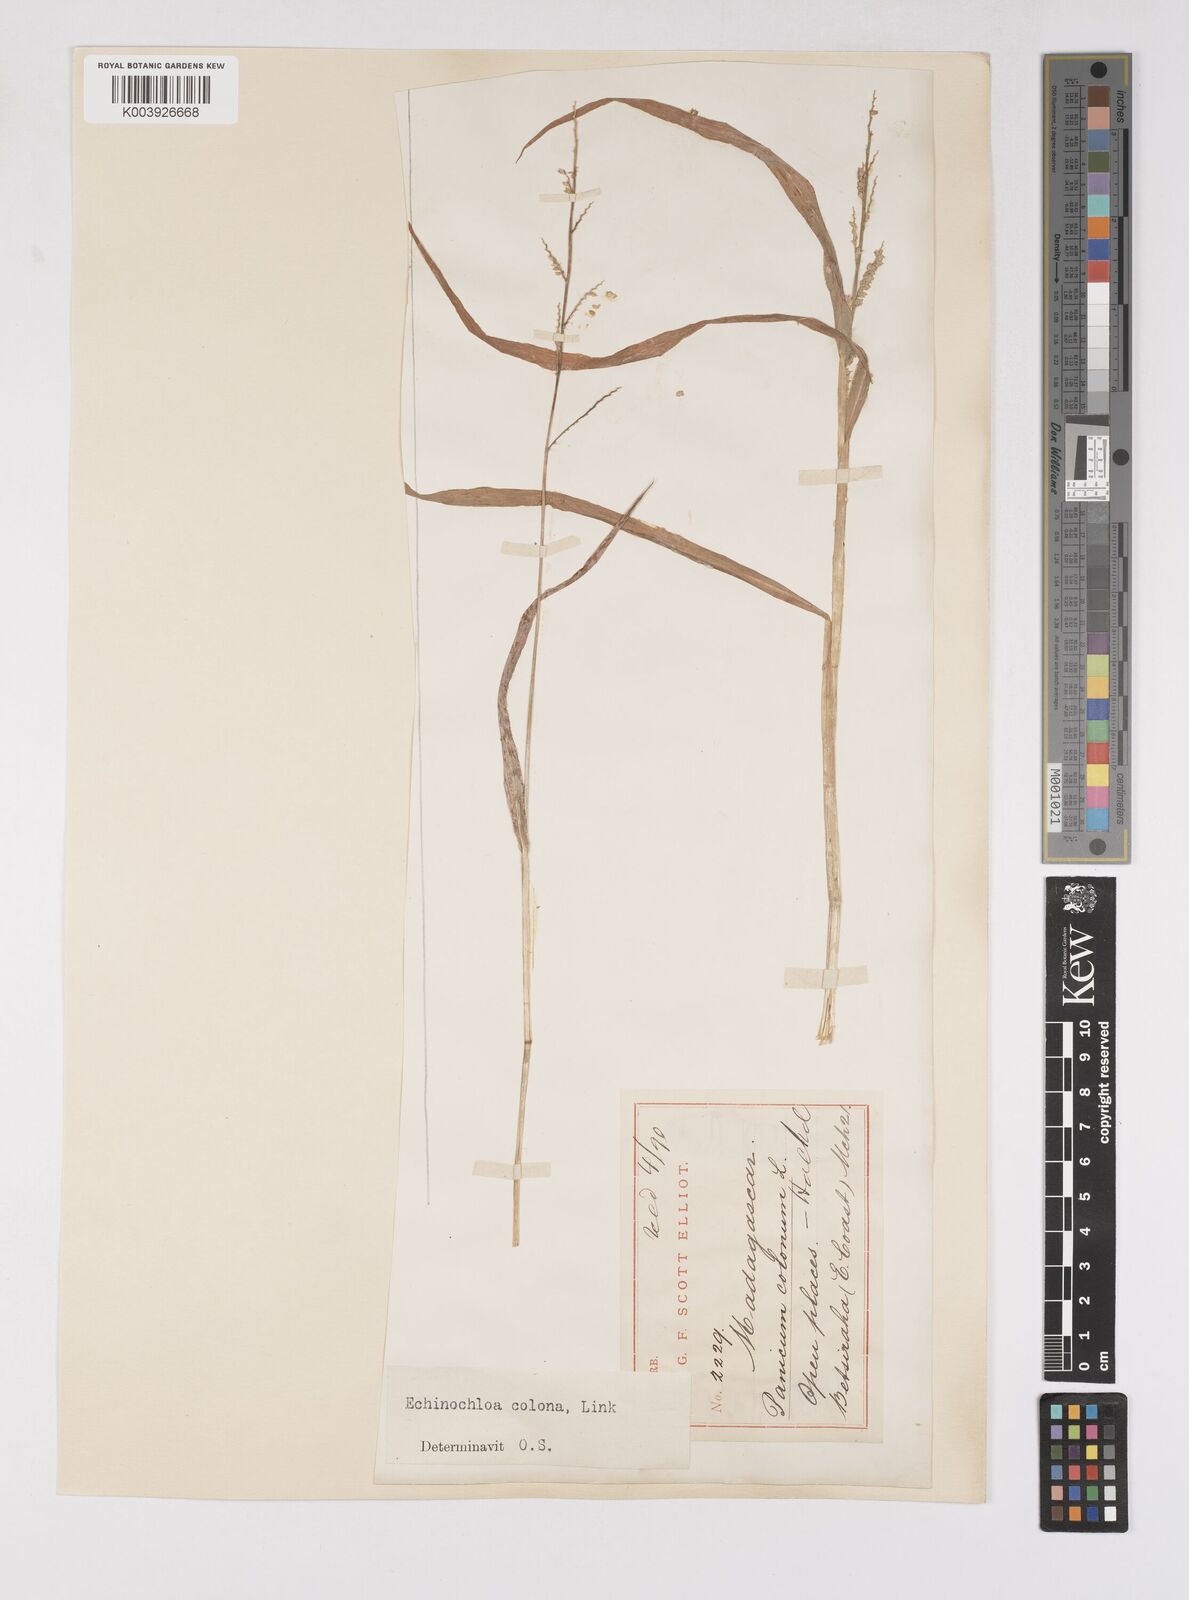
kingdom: Plantae
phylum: Tracheophyta
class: Liliopsida
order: Poales
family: Poaceae
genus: Echinochloa
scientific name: Echinochloa colonum
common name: Jungle rice
